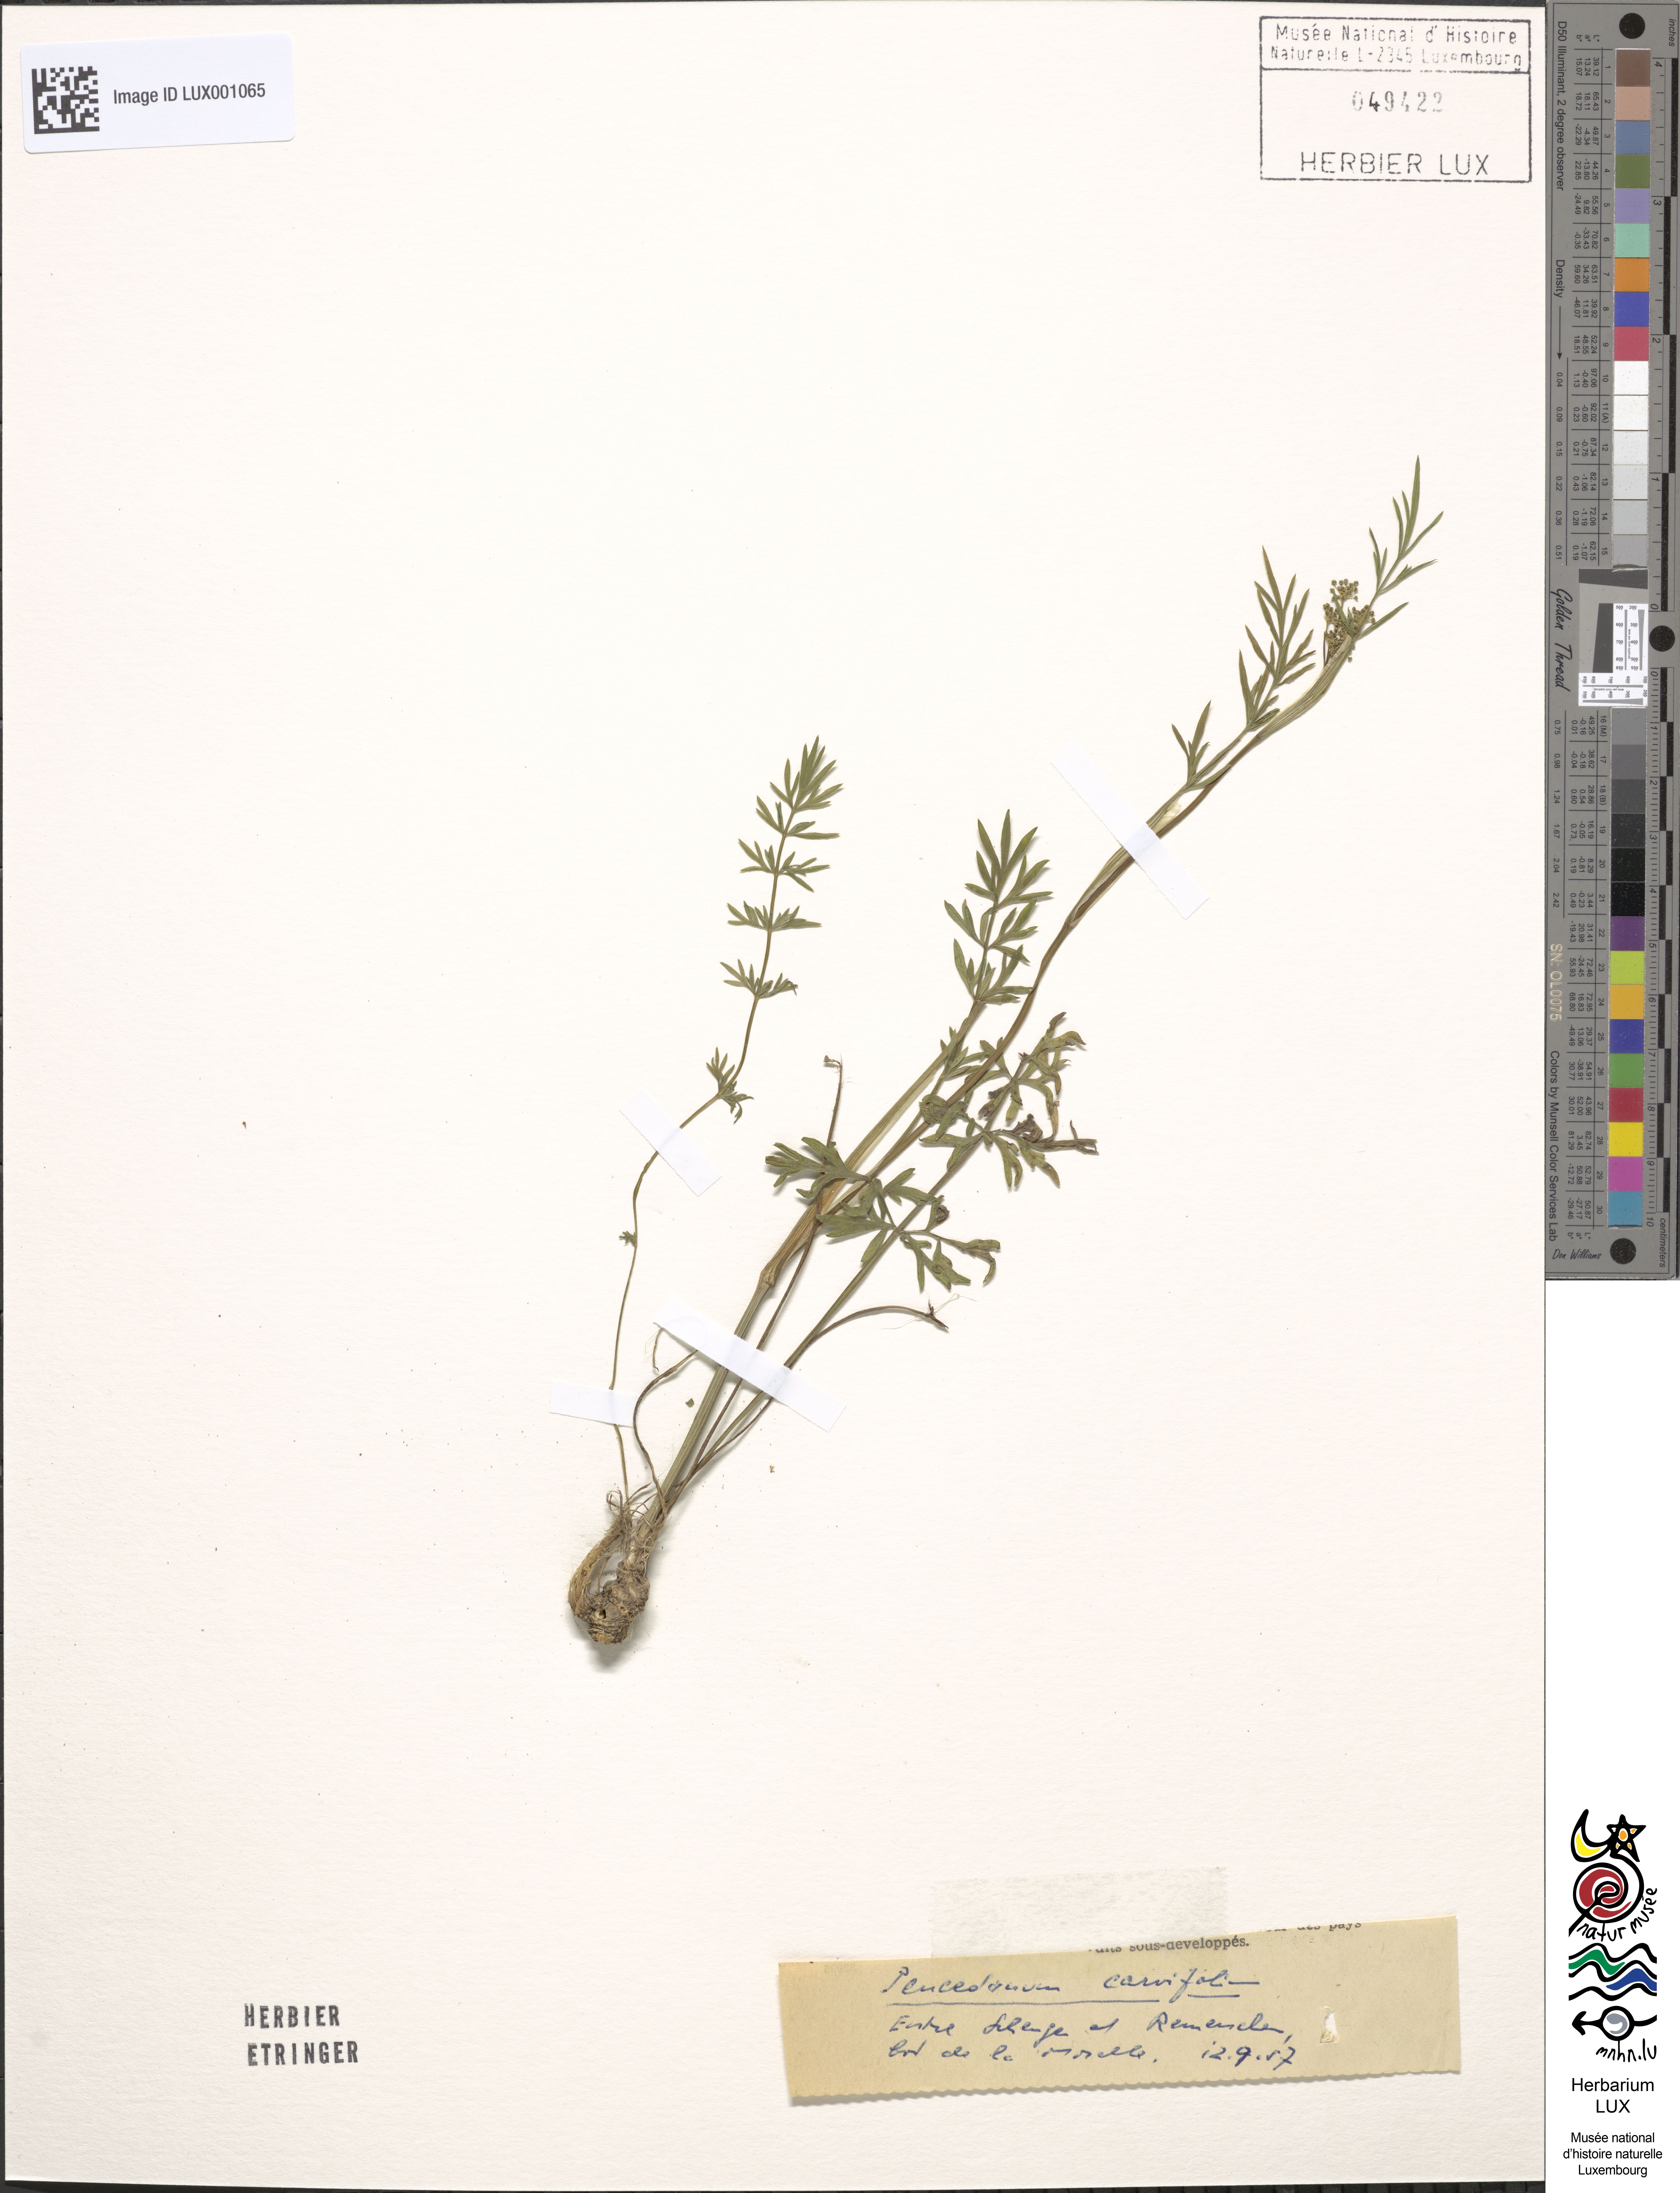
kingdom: Plantae
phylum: Tracheophyta
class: Magnoliopsida
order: Apiales
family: Apiaceae
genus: Dichoropetalum
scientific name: Dichoropetalum carvifolia
